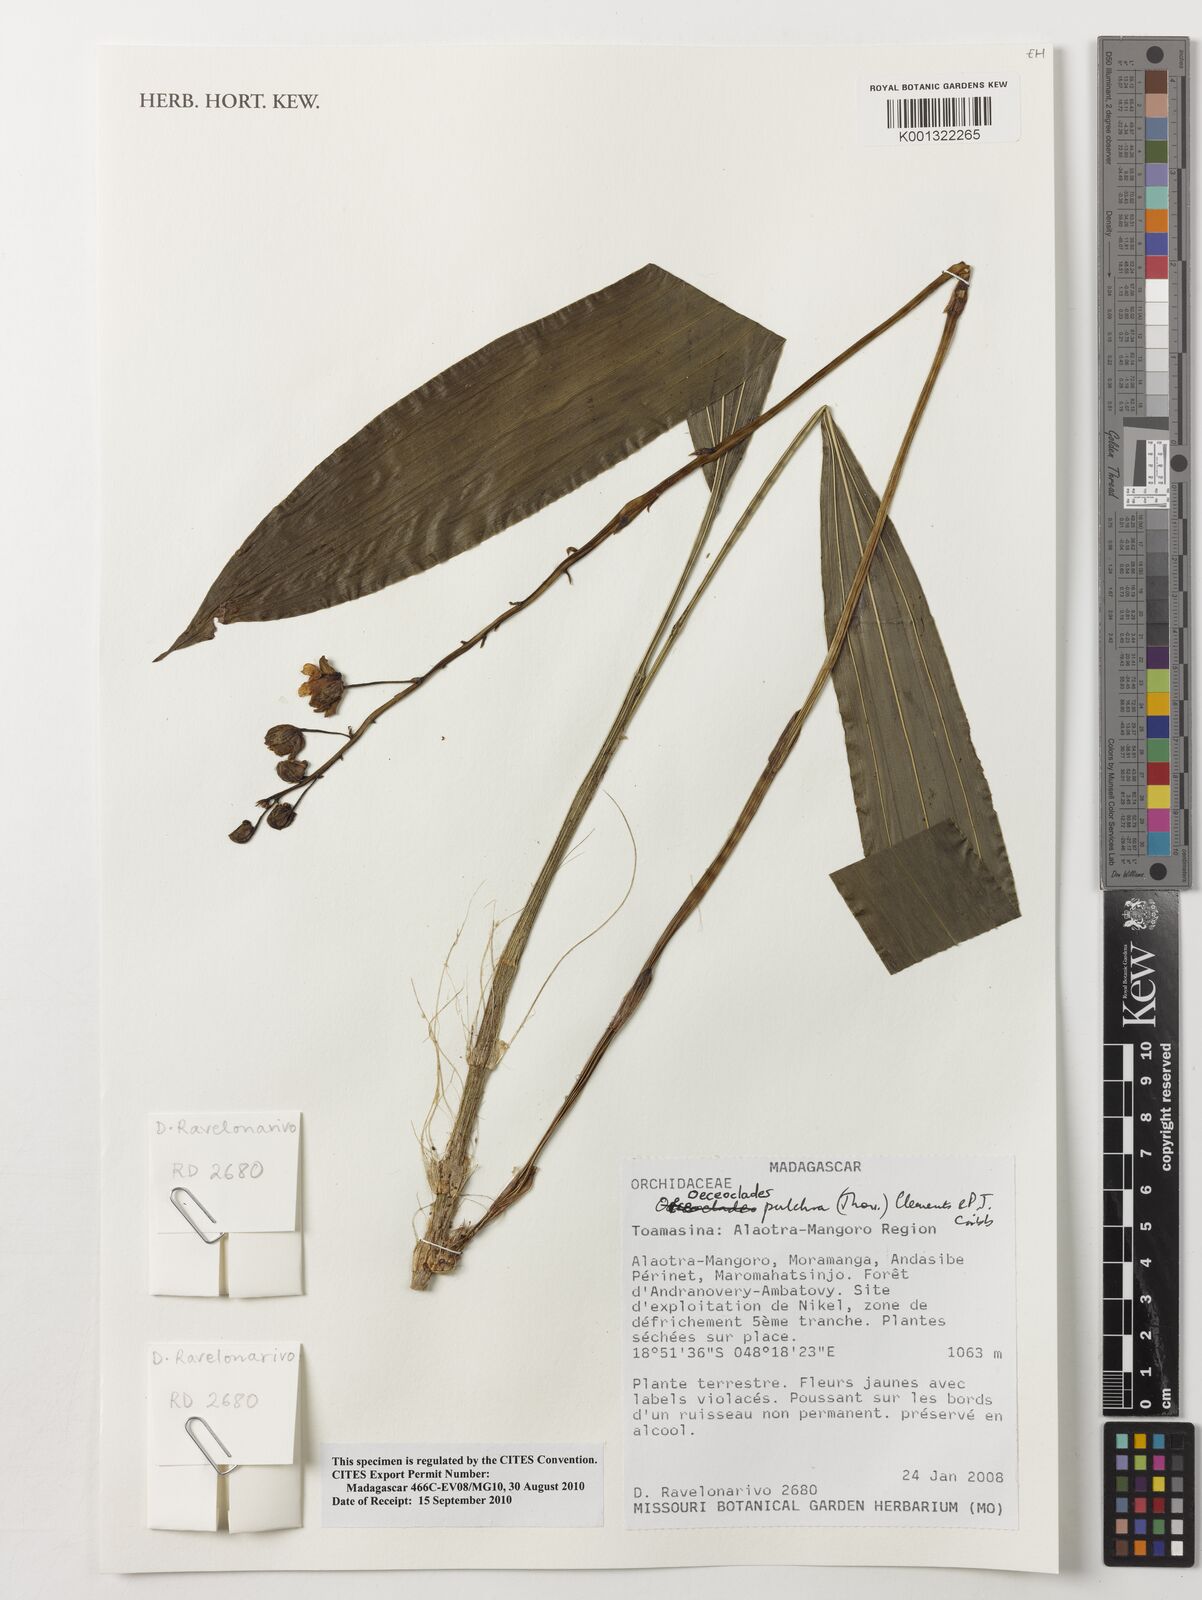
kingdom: Plantae
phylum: Tracheophyta
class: Liliopsida
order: Asparagales
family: Orchidaceae
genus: Eulophia
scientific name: Eulophia pulchra
